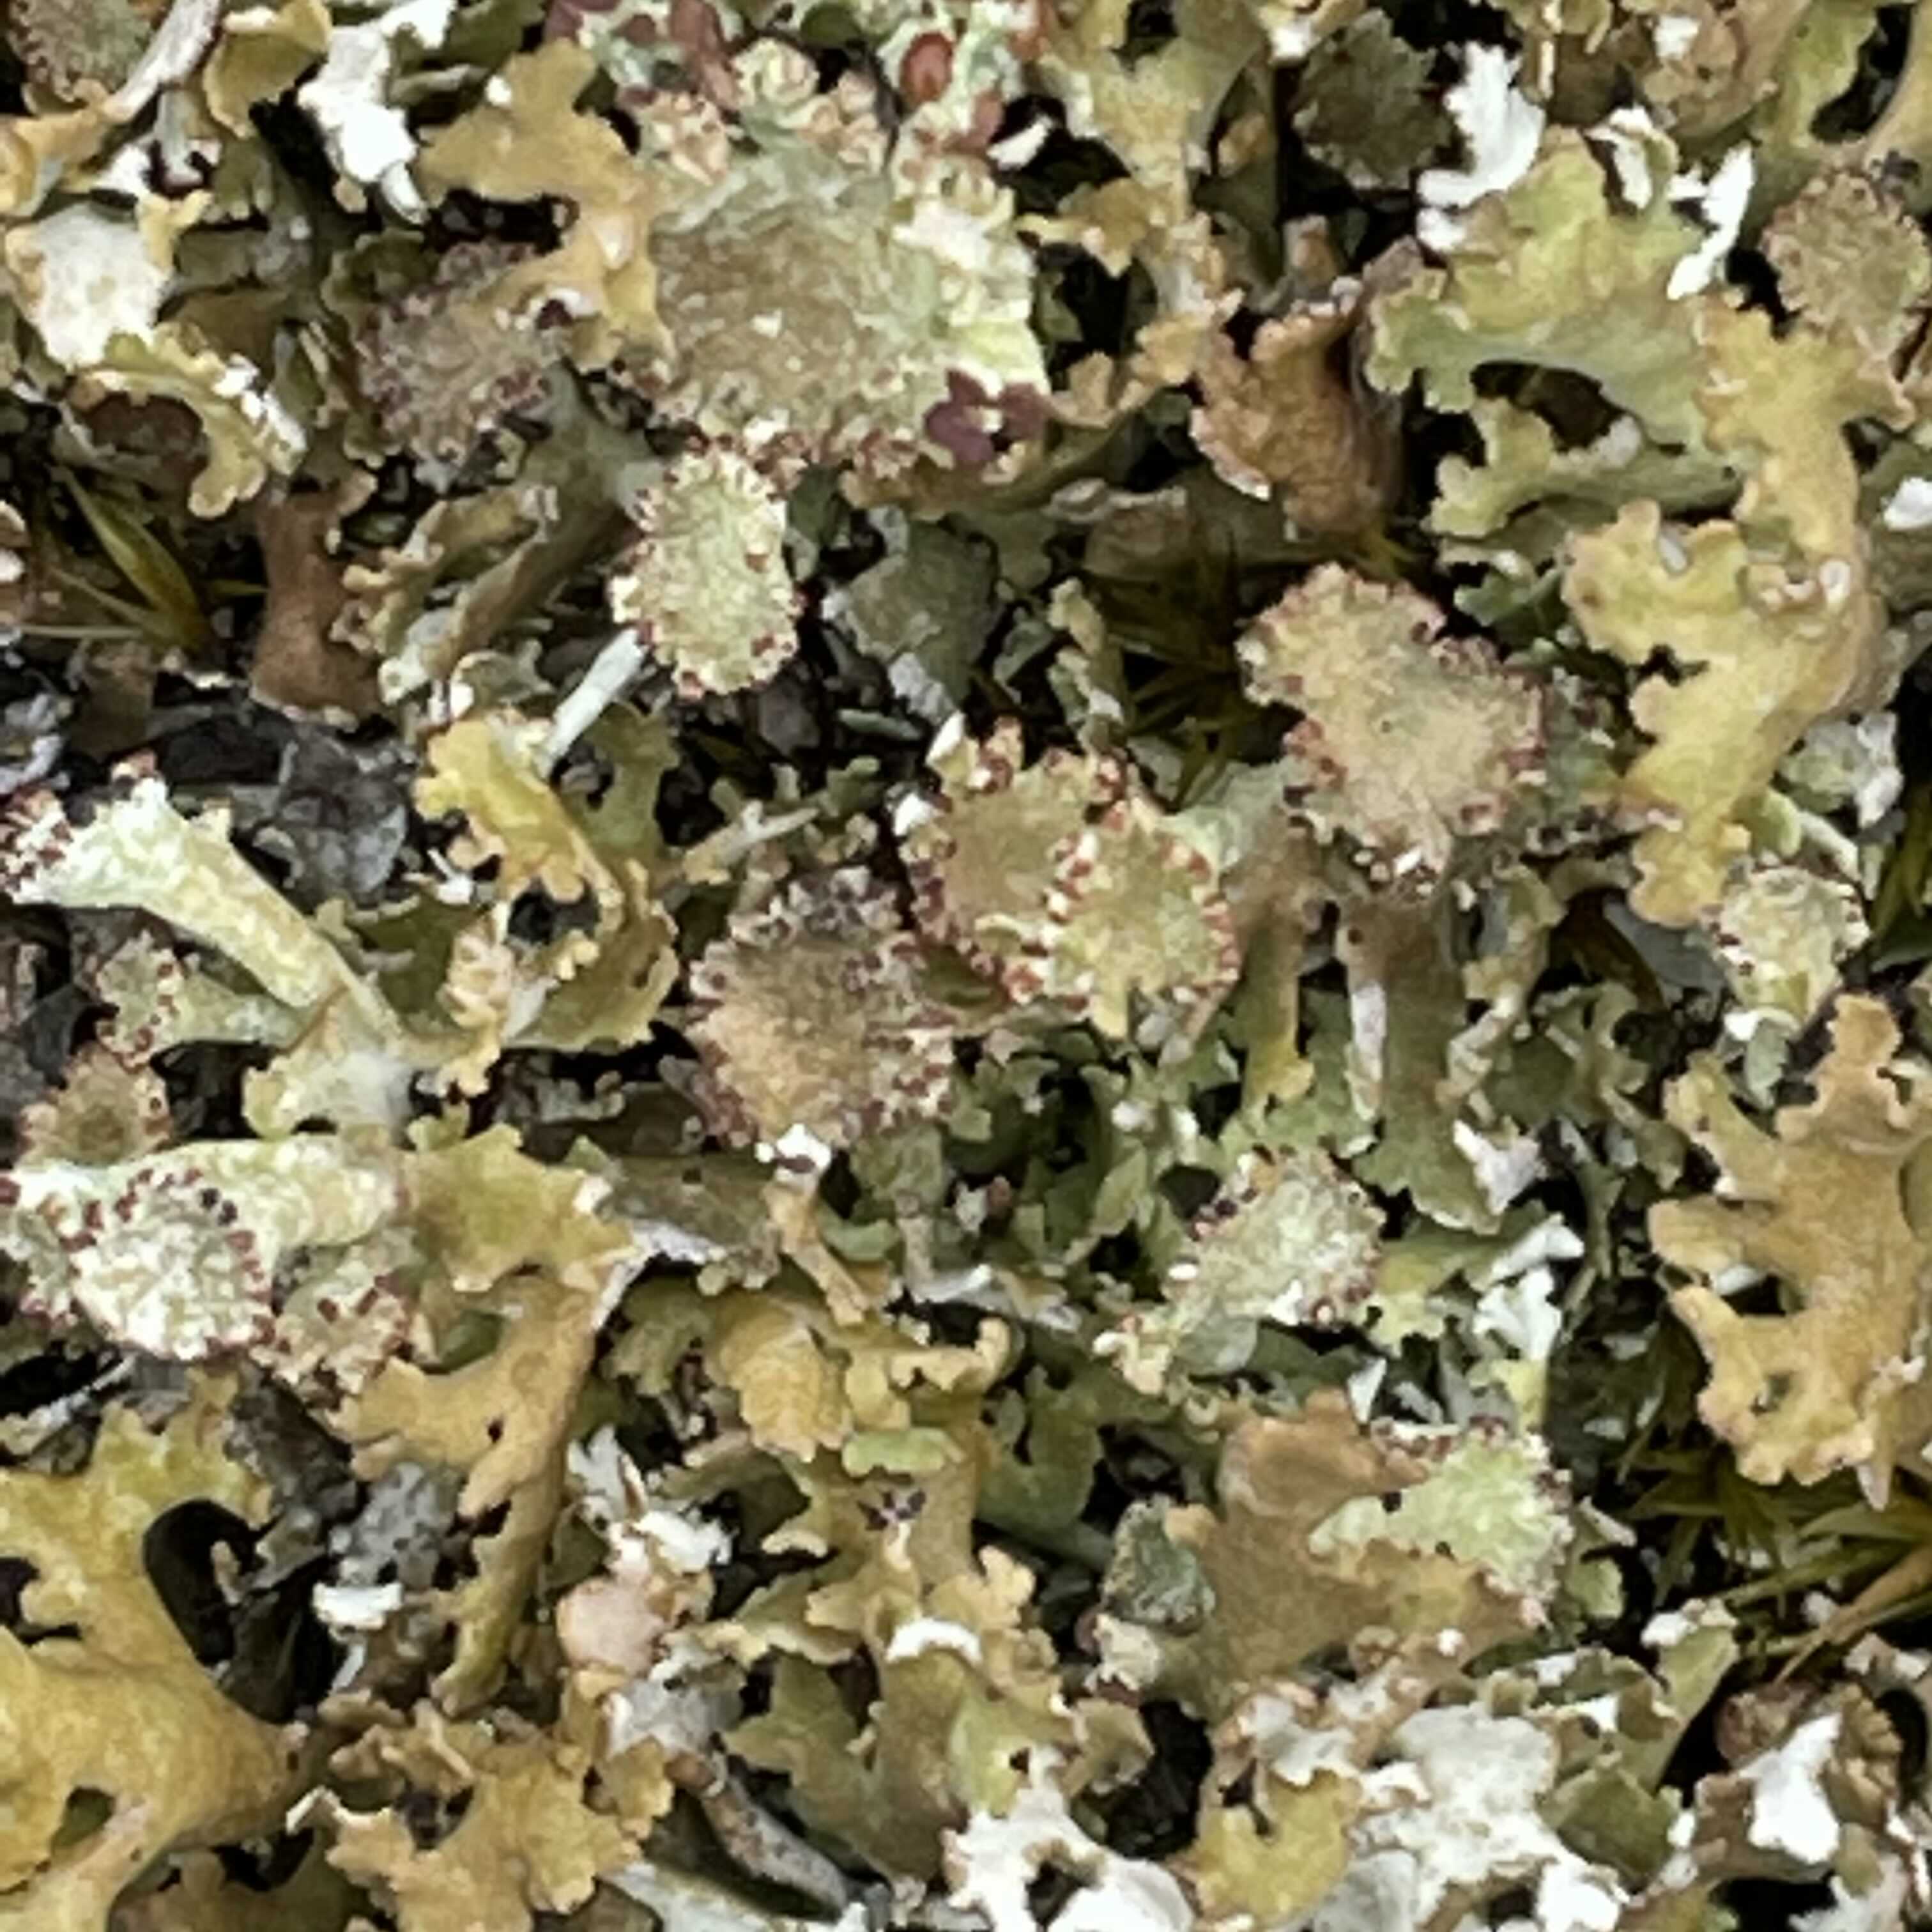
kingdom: Fungi
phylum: Ascomycota
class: Lecanoromycetes
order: Lecanorales
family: Cladoniaceae
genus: Cladonia
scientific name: Cladonia foliacea
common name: fliget bægerlav
